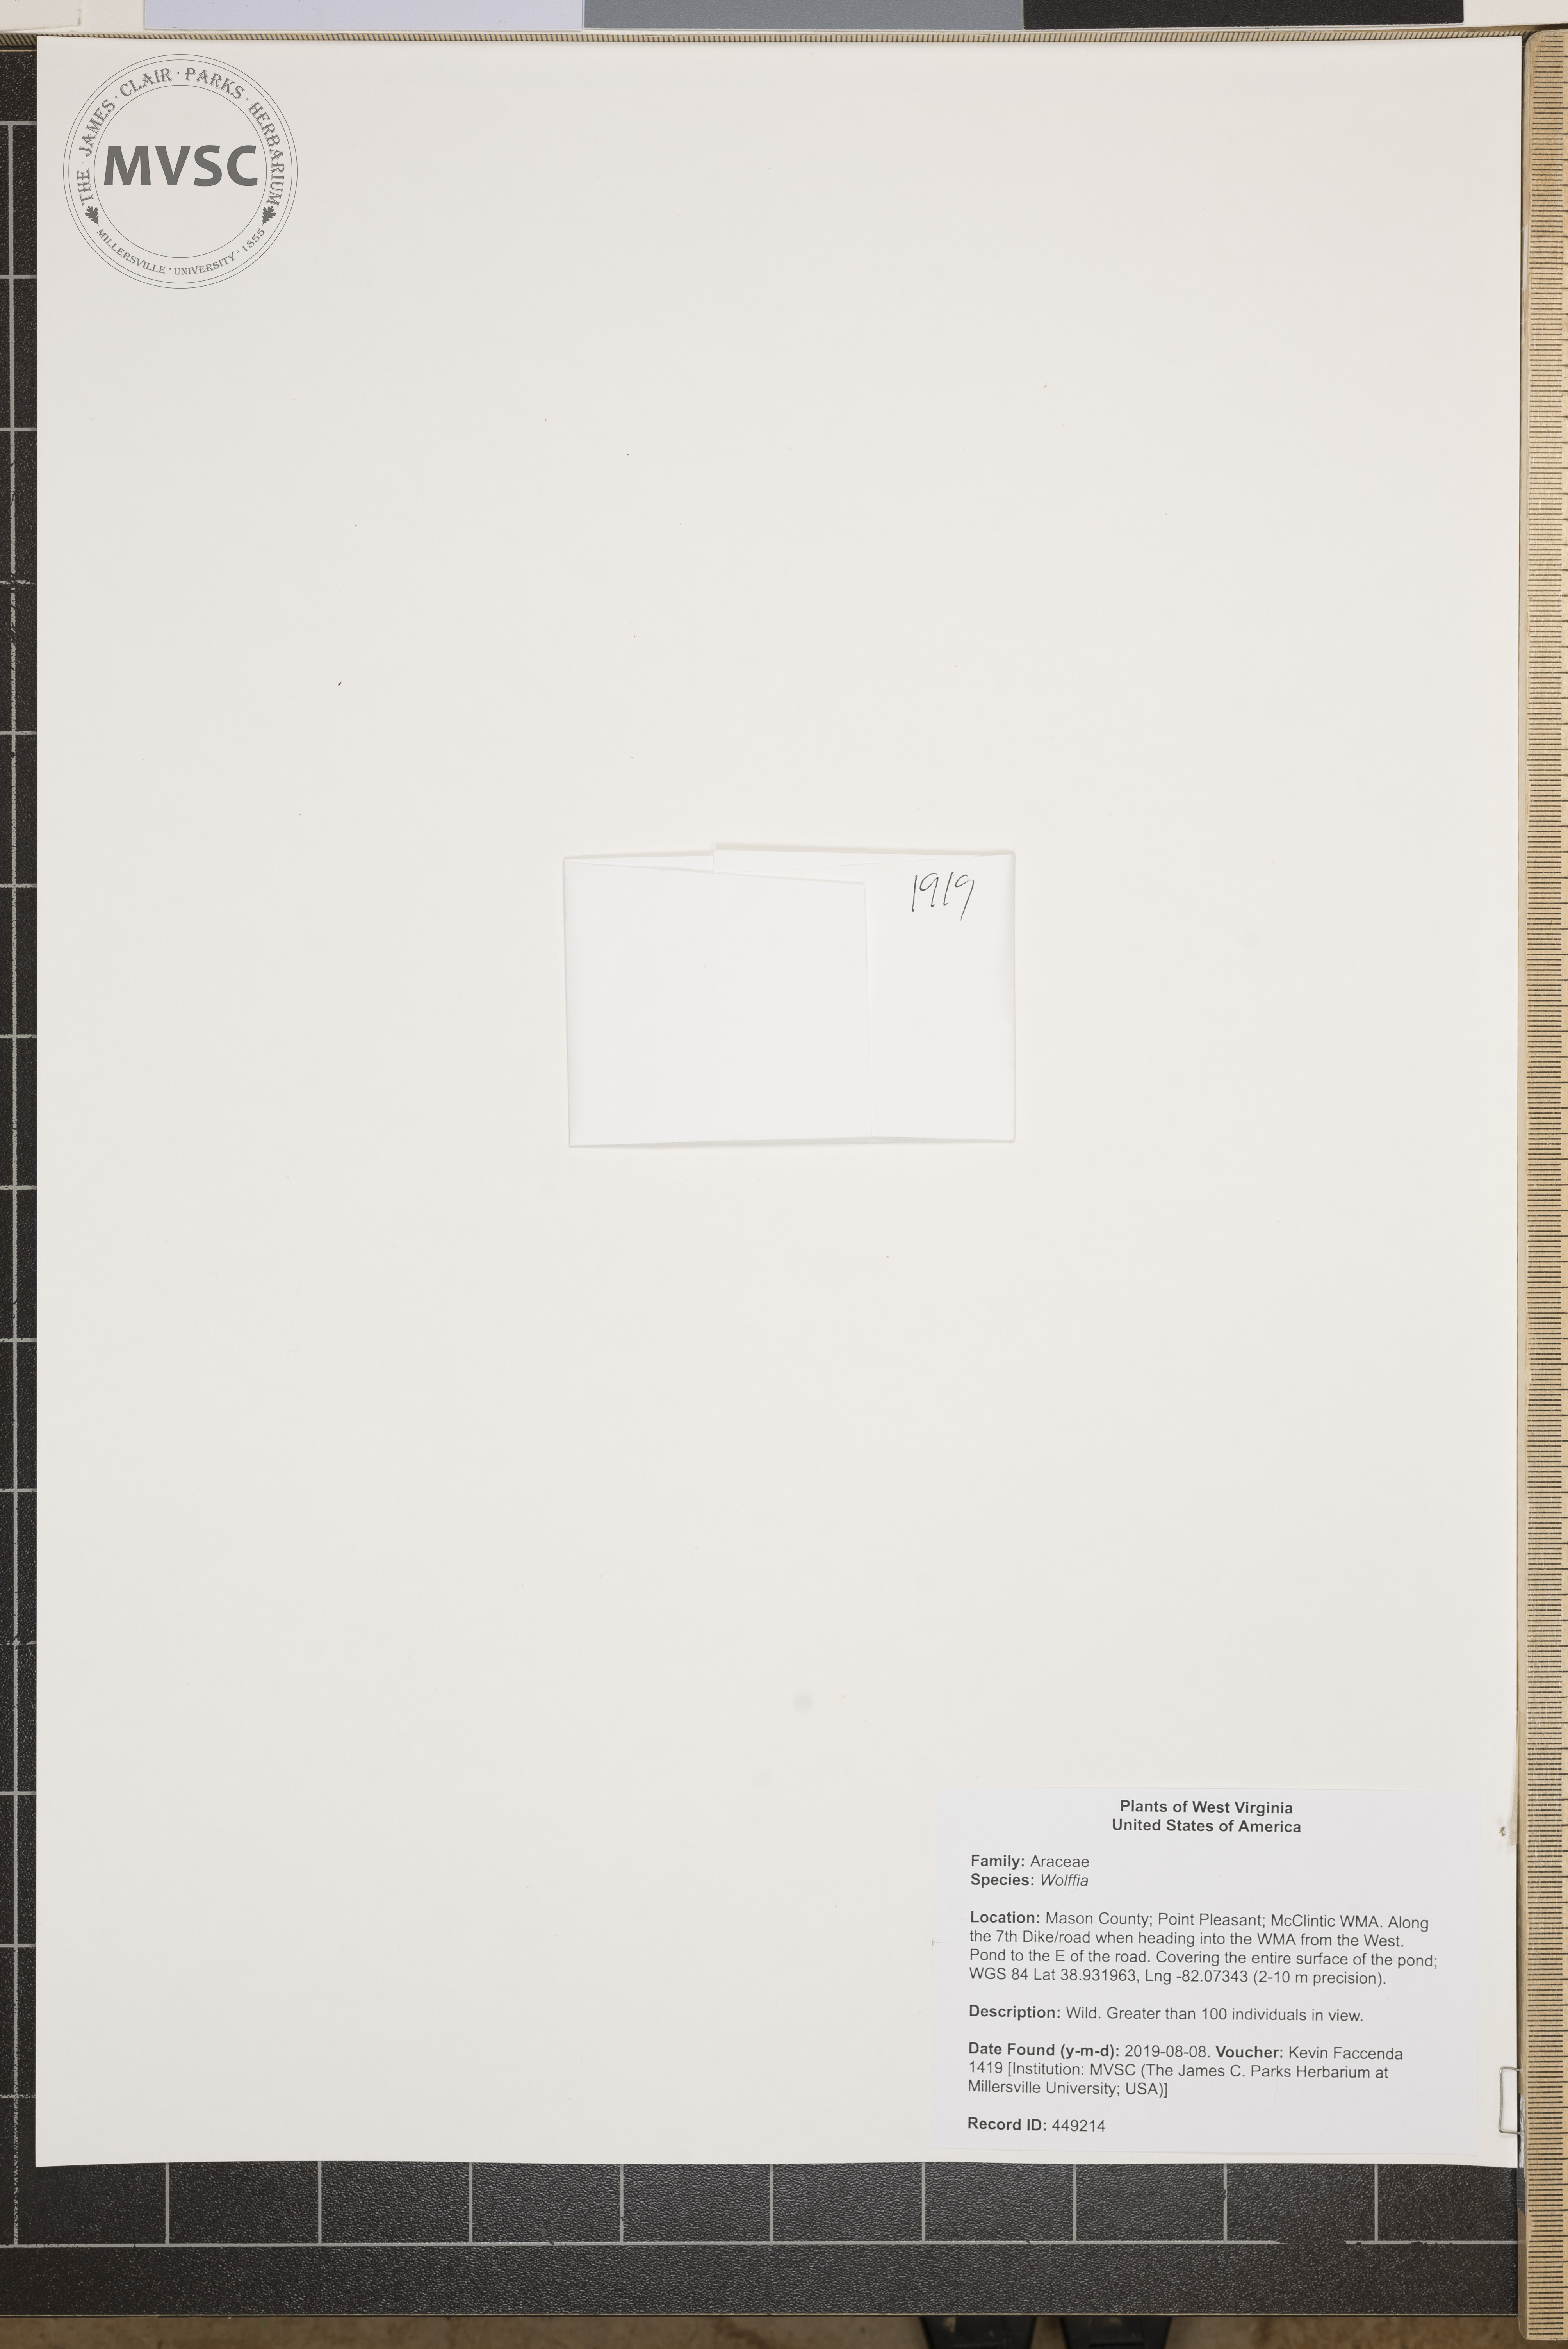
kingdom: Plantae
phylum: Tracheophyta
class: Liliopsida
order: Alismatales
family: Araceae
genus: Wolffia
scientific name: Wolffia
